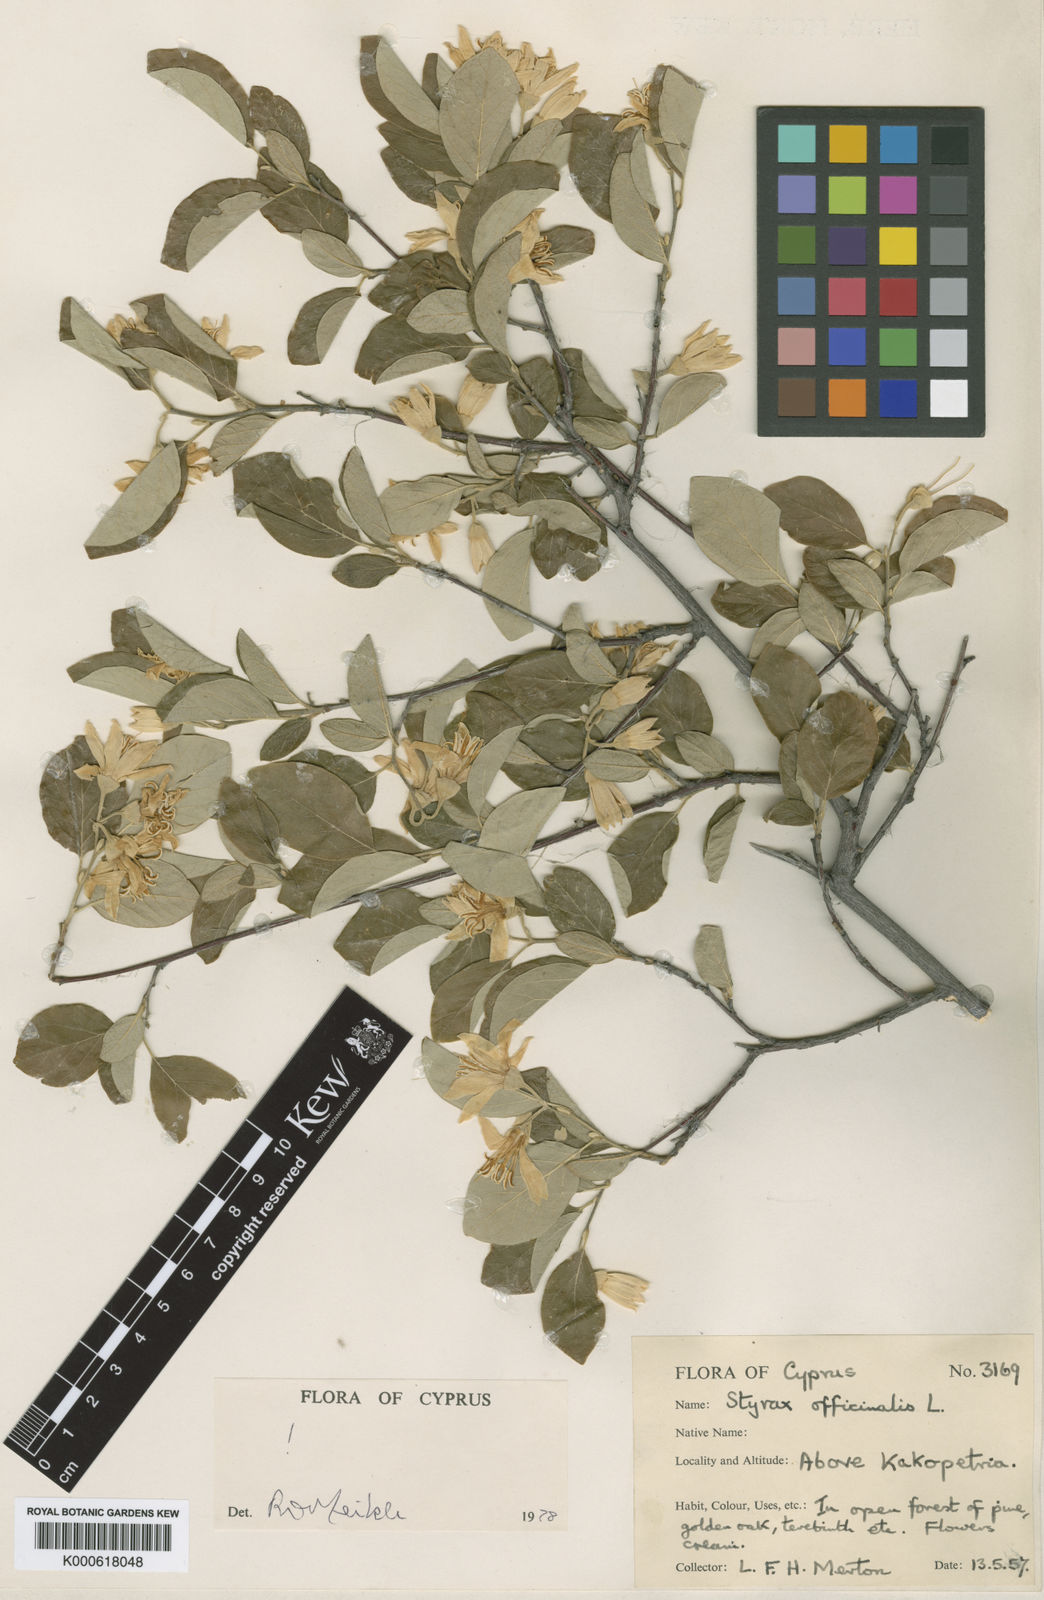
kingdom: Plantae
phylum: Tracheophyta
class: Magnoliopsida
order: Ericales
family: Styracaceae
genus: Styrax
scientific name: Styrax officinalis
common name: Storax
